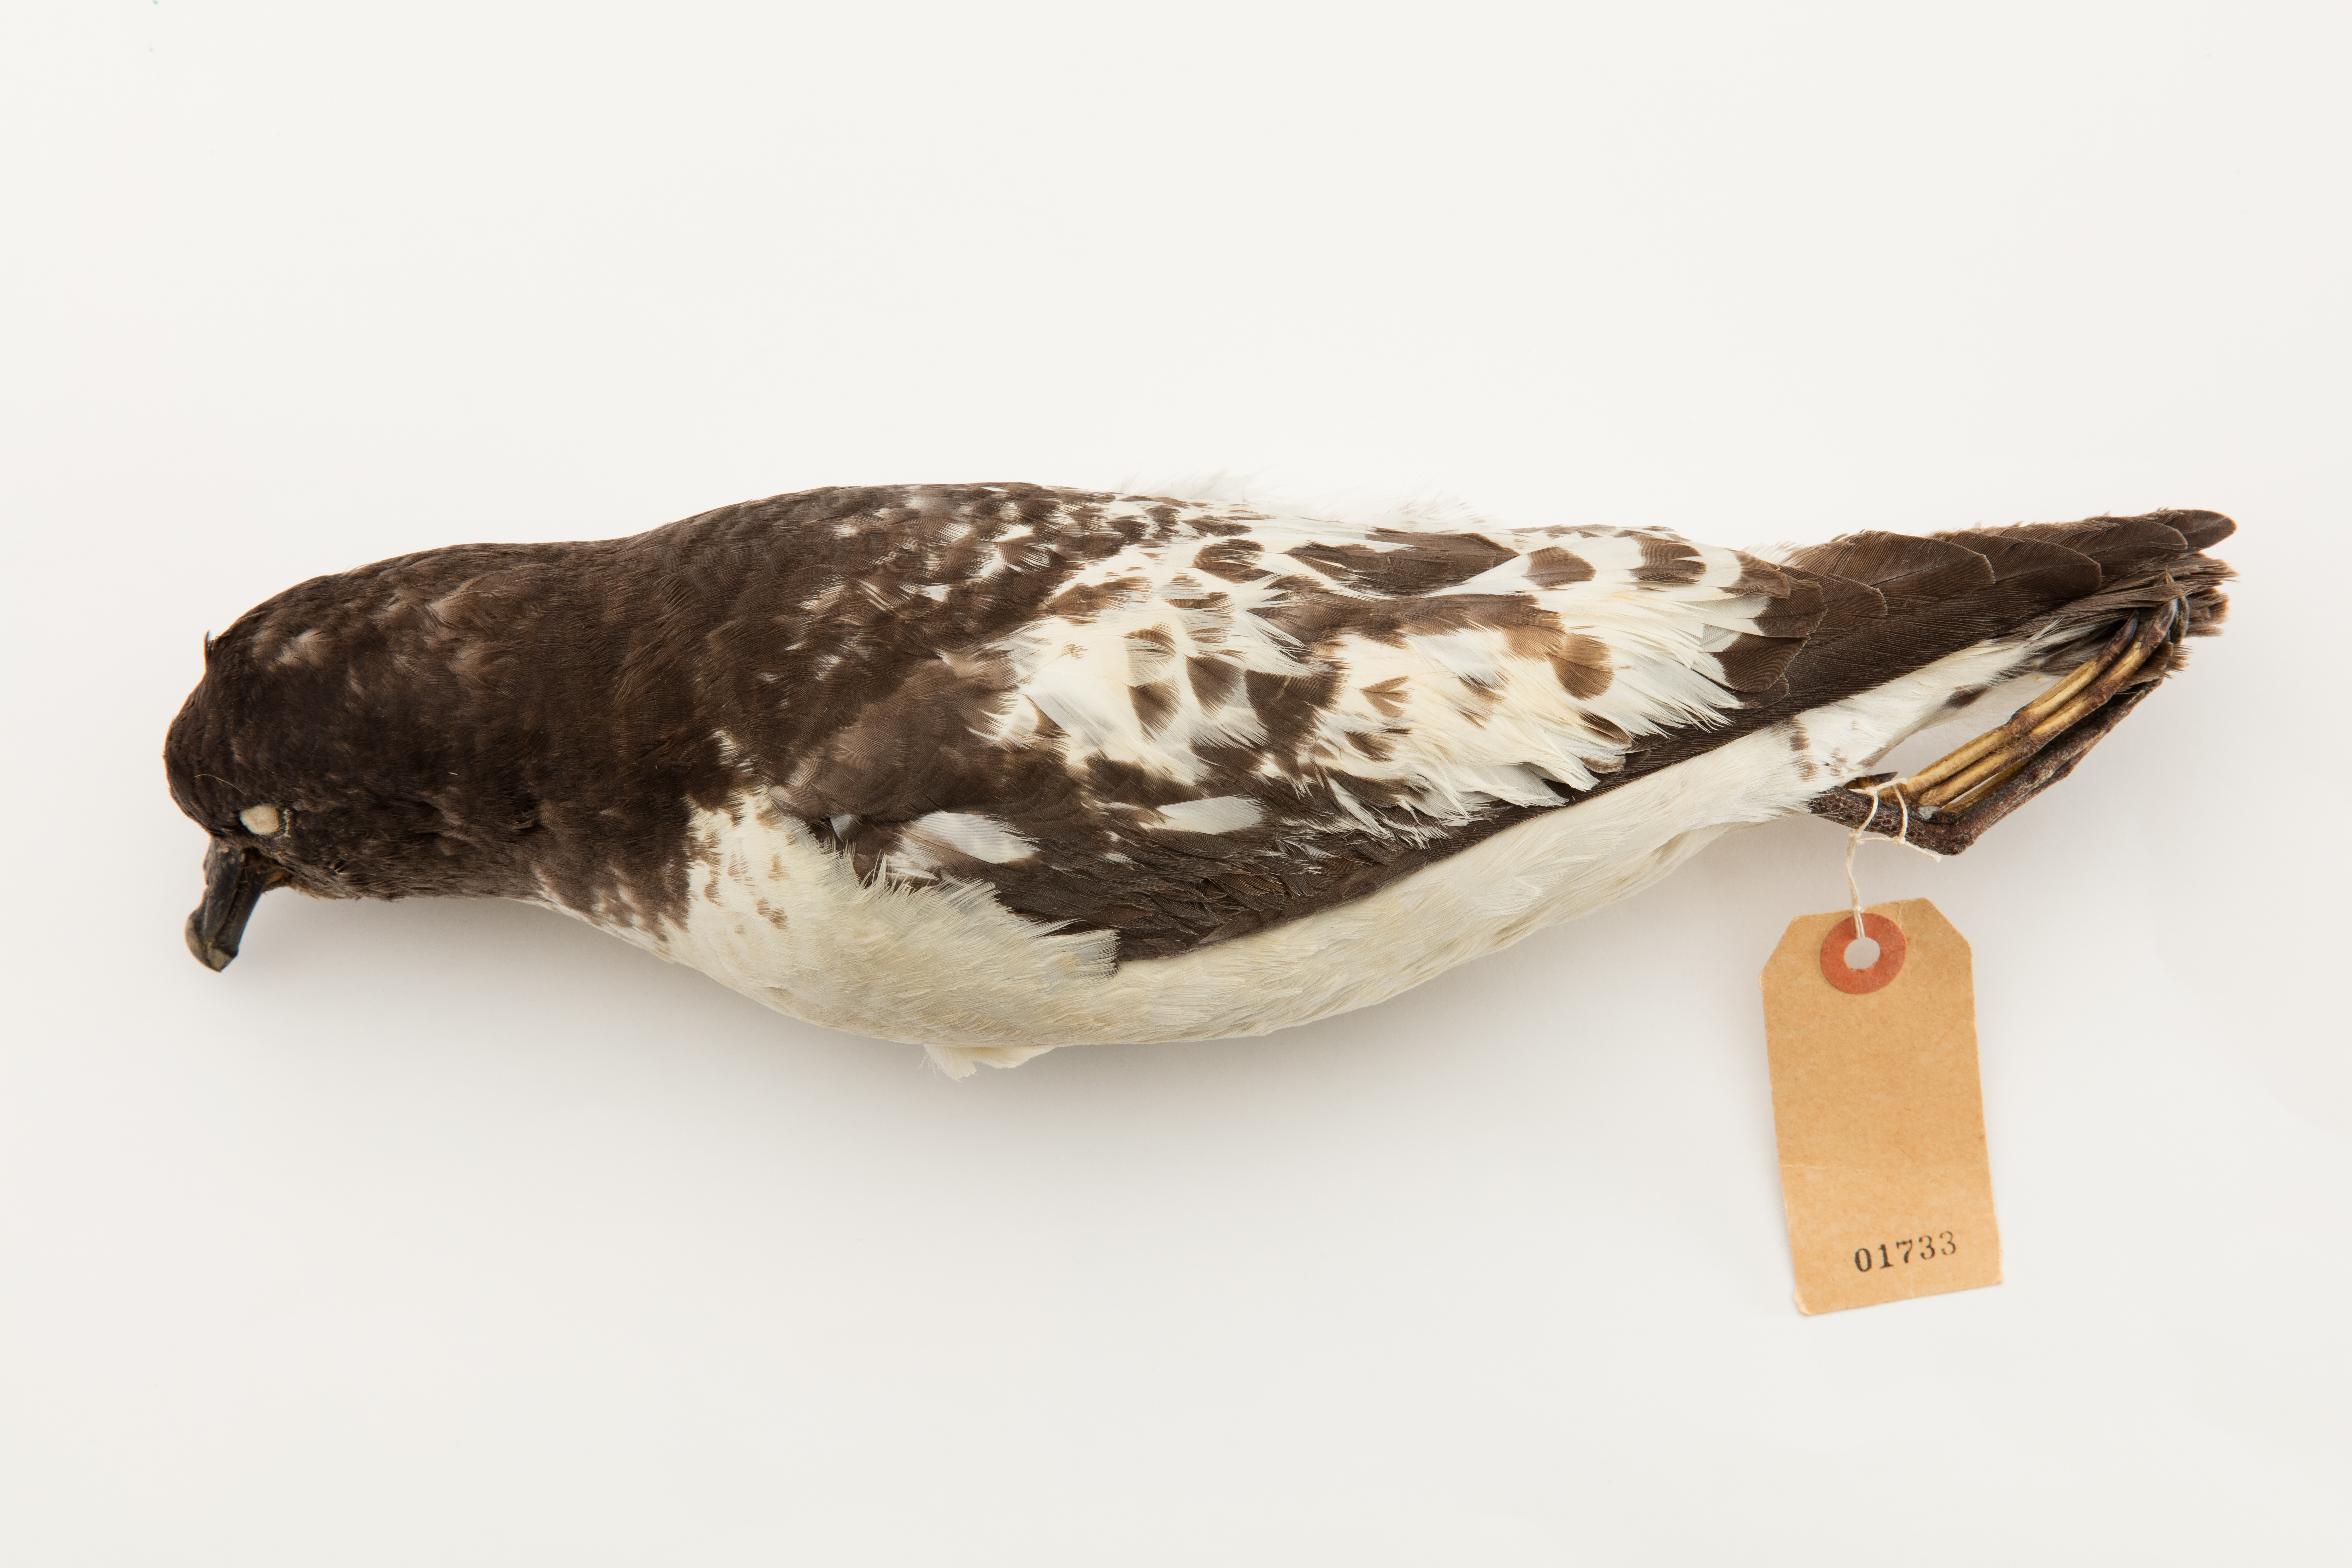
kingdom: Animalia
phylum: Chordata
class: Aves
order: Procellariiformes
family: Procellariidae
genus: Daption
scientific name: Daption capense
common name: Cape petrel
